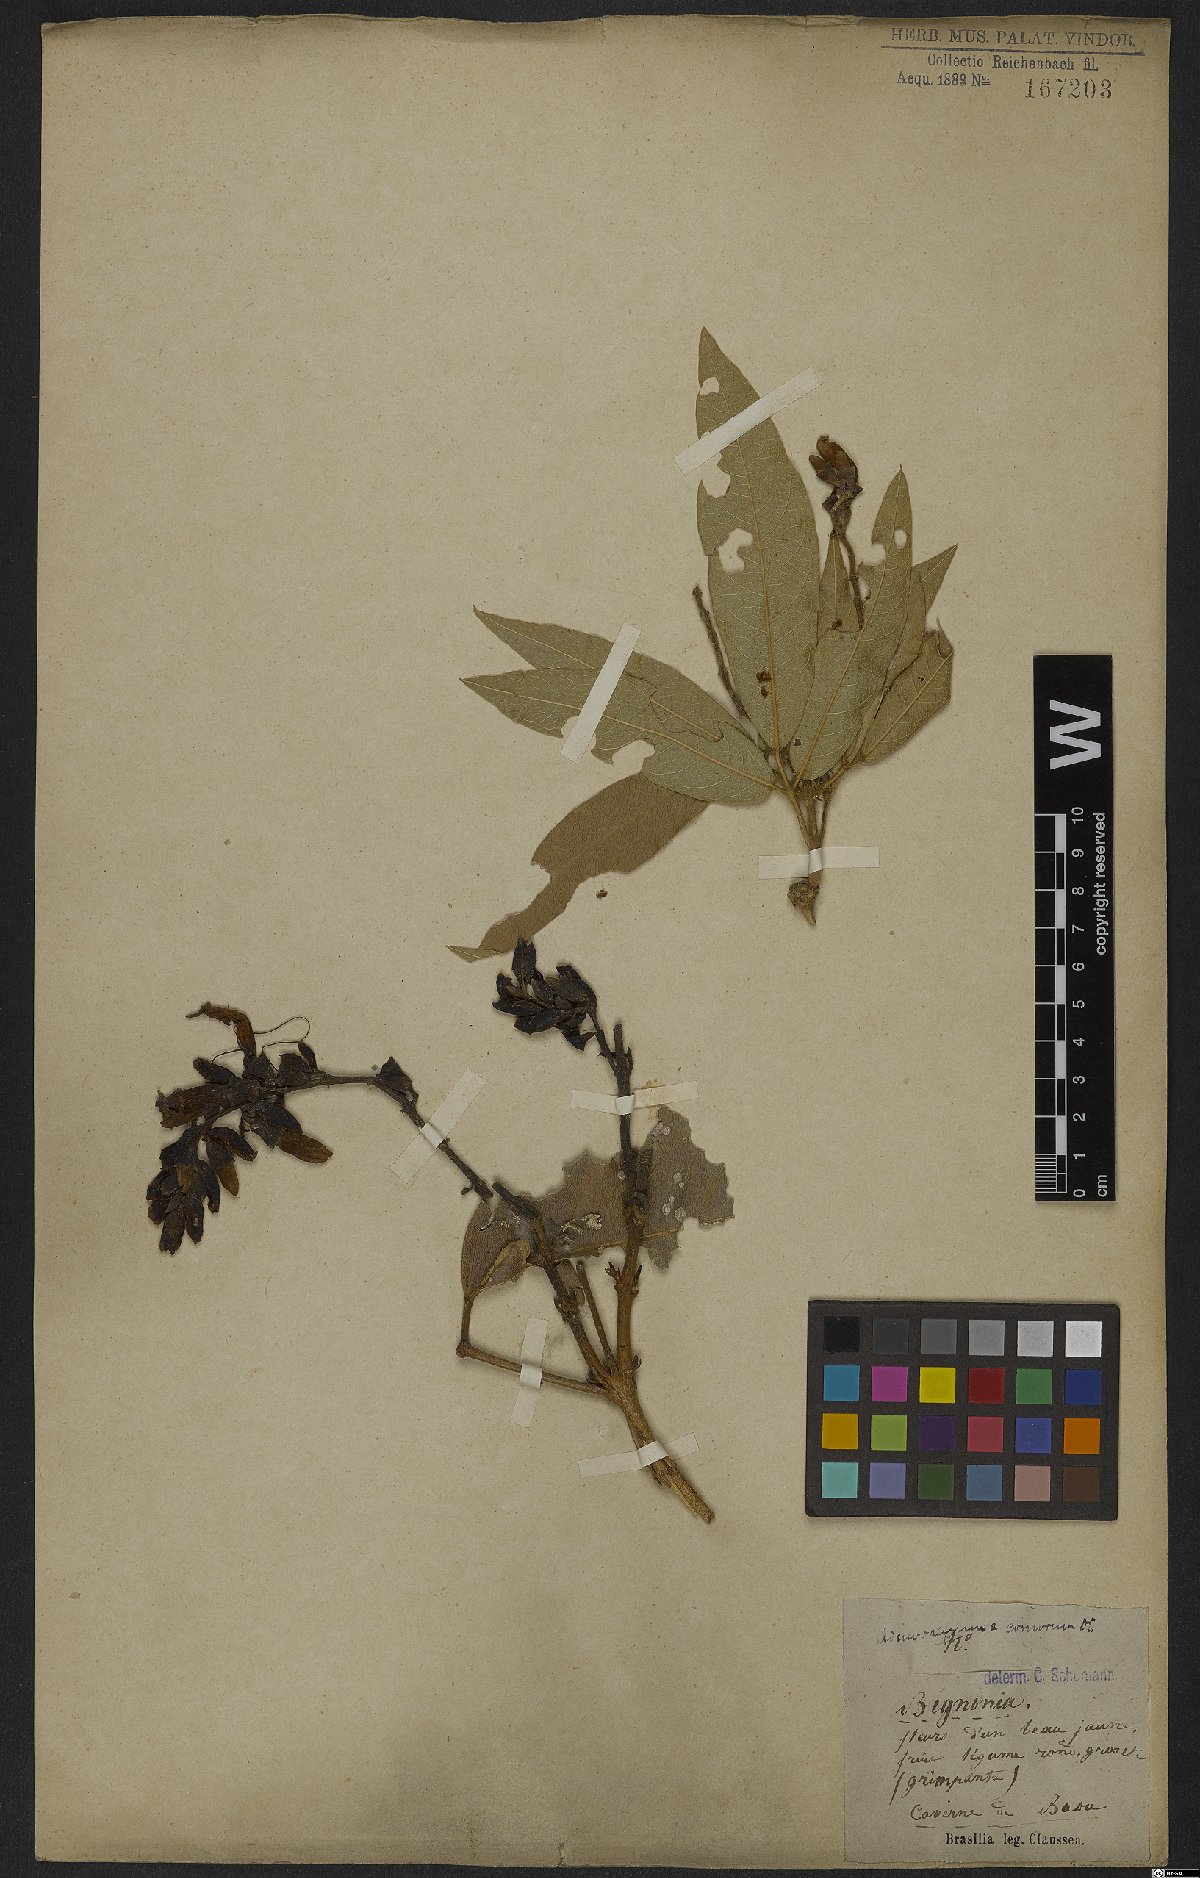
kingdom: Plantae
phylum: Tracheophyta
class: Magnoliopsida
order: Lamiales
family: Bignoniaceae
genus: Adenocalymma
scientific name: Adenocalymma acutissimum
